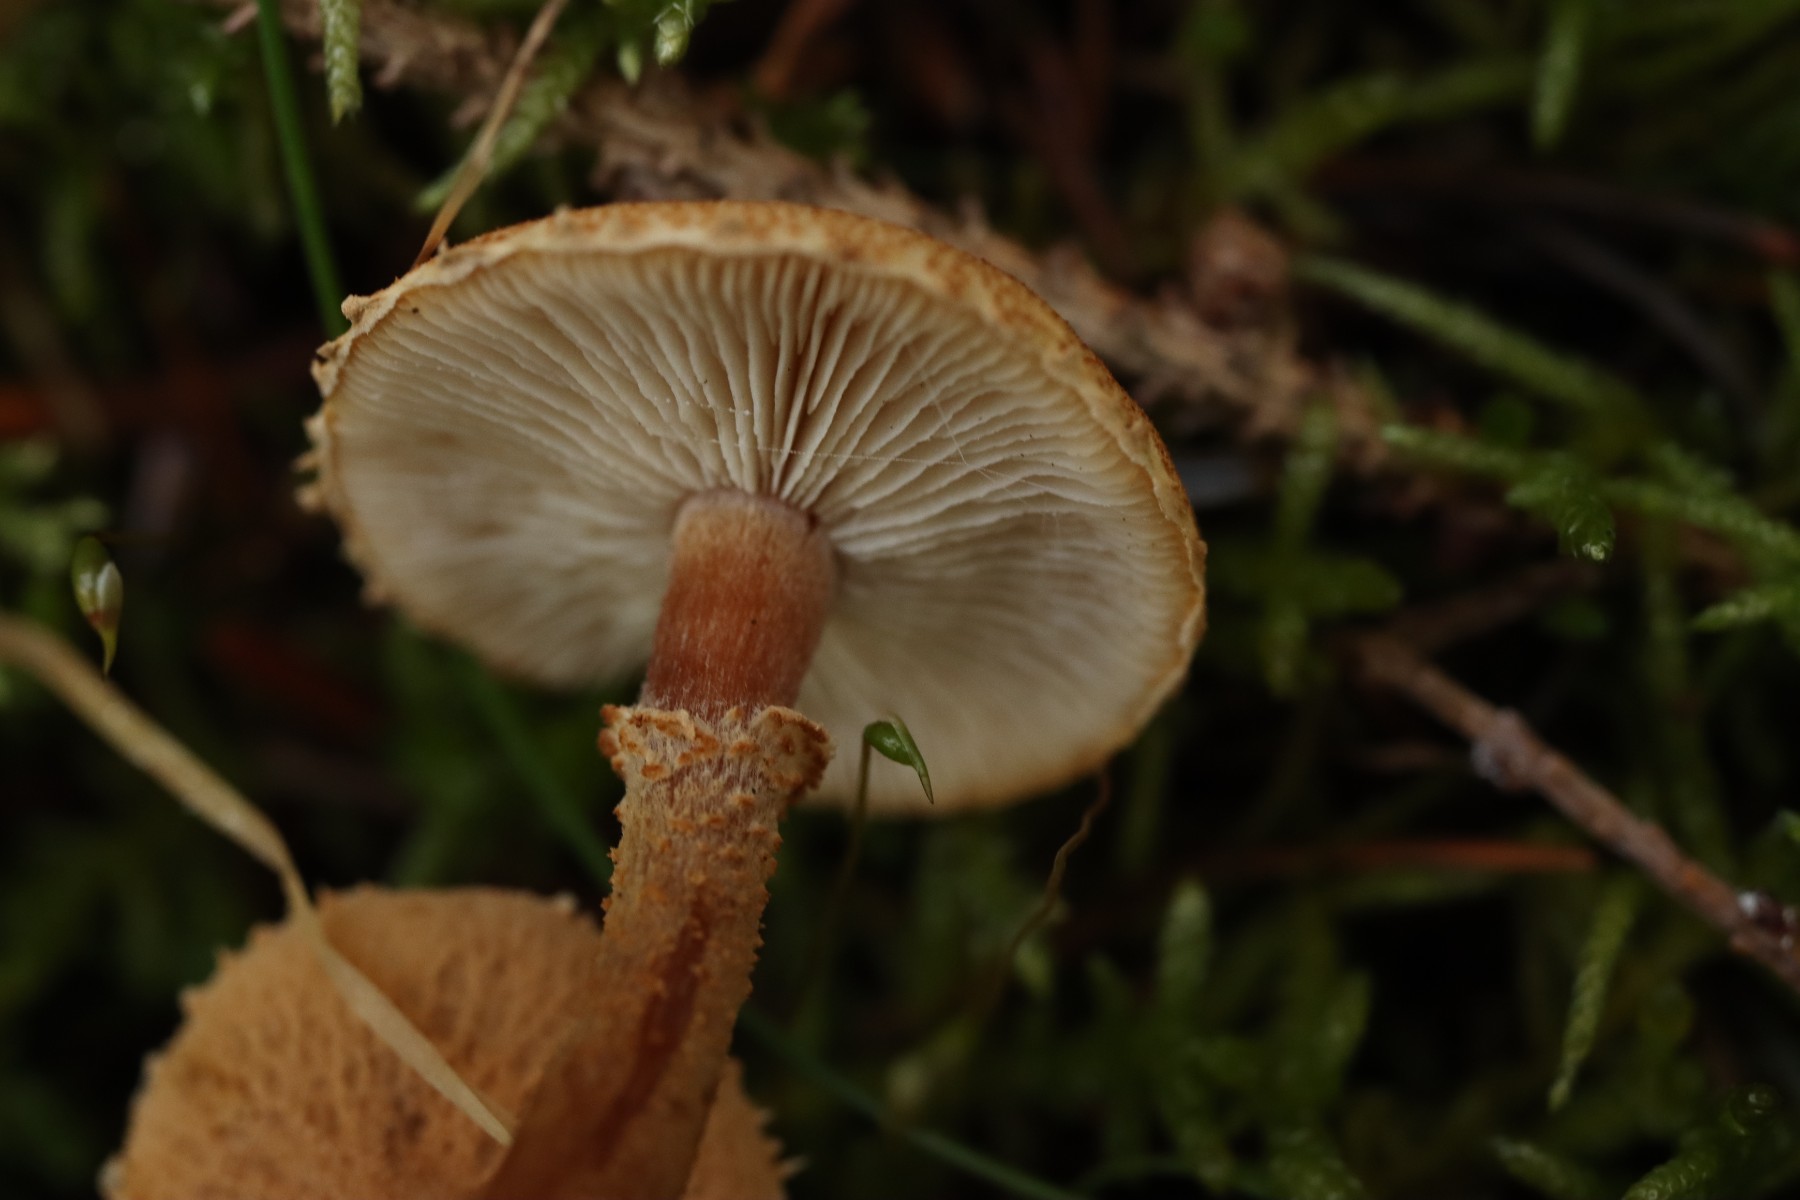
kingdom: Fungi
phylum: Basidiomycota
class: Agaricomycetes
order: Agaricales
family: Tricholomataceae
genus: Cystoderma
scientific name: Cystoderma amianthinum
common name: okkergul grynhat
